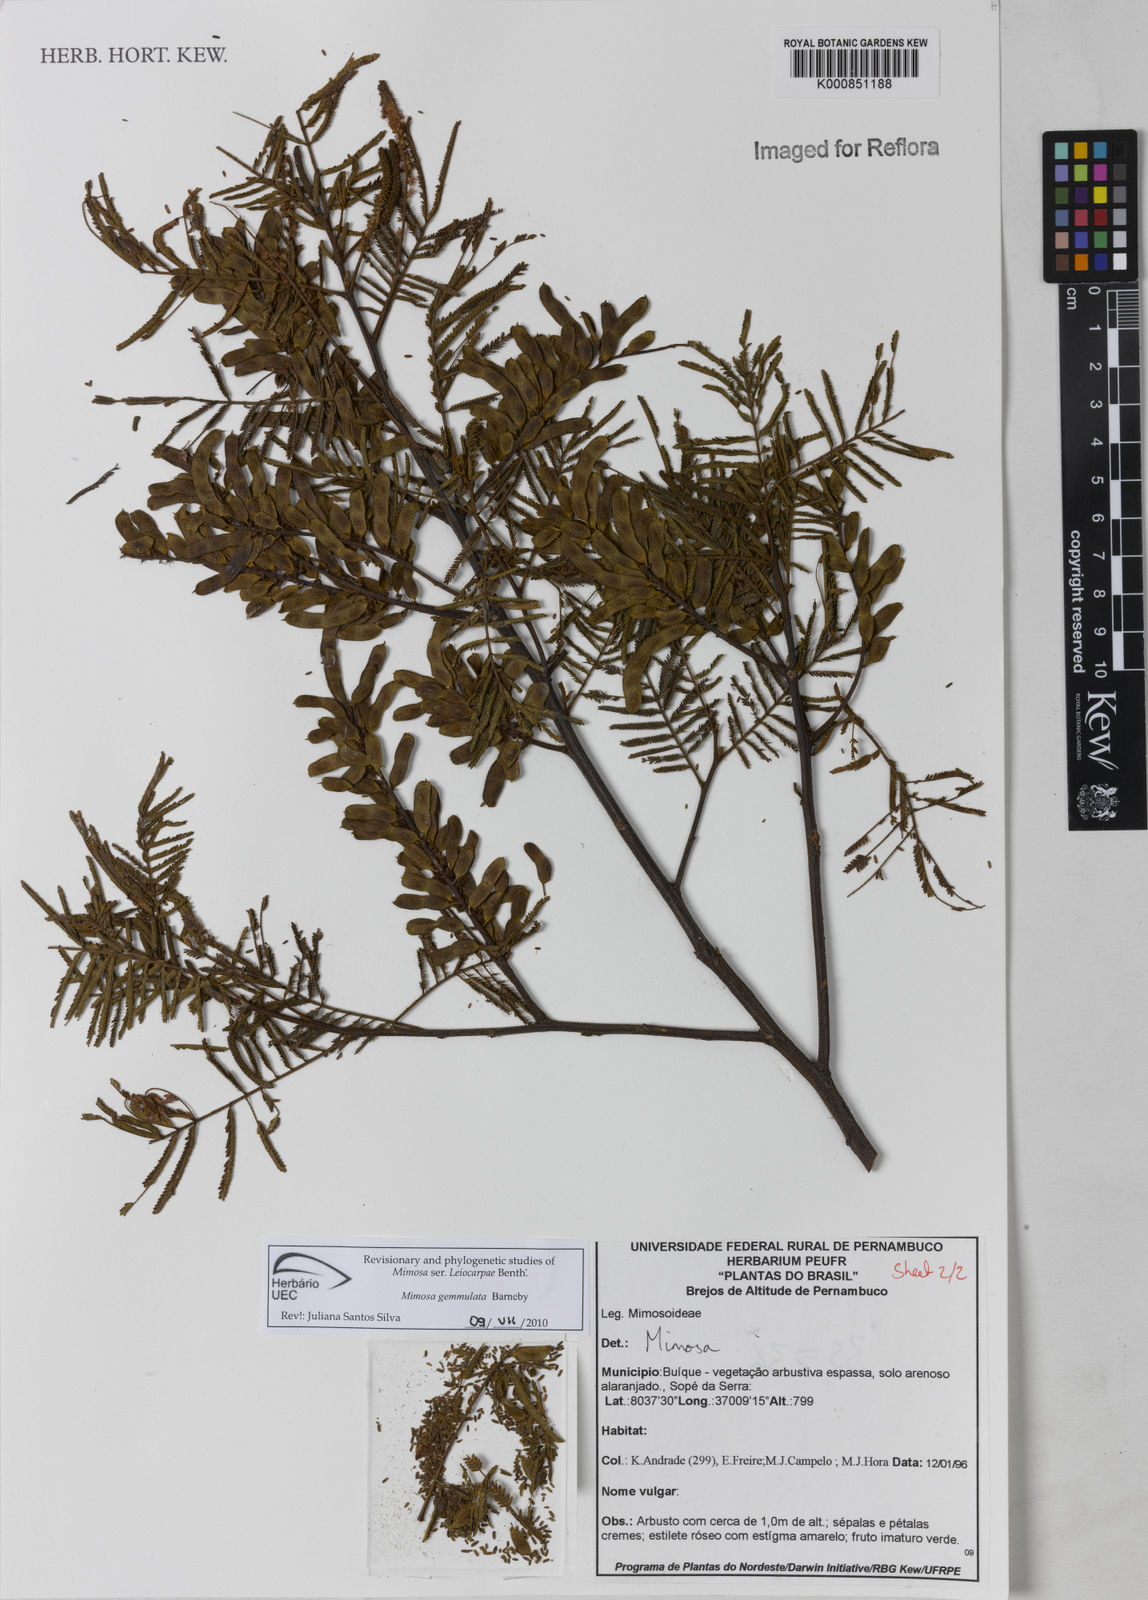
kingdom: Plantae
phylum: Tracheophyta
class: Magnoliopsida
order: Fabales
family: Fabaceae
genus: Mimosa
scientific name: Mimosa gemmulata
